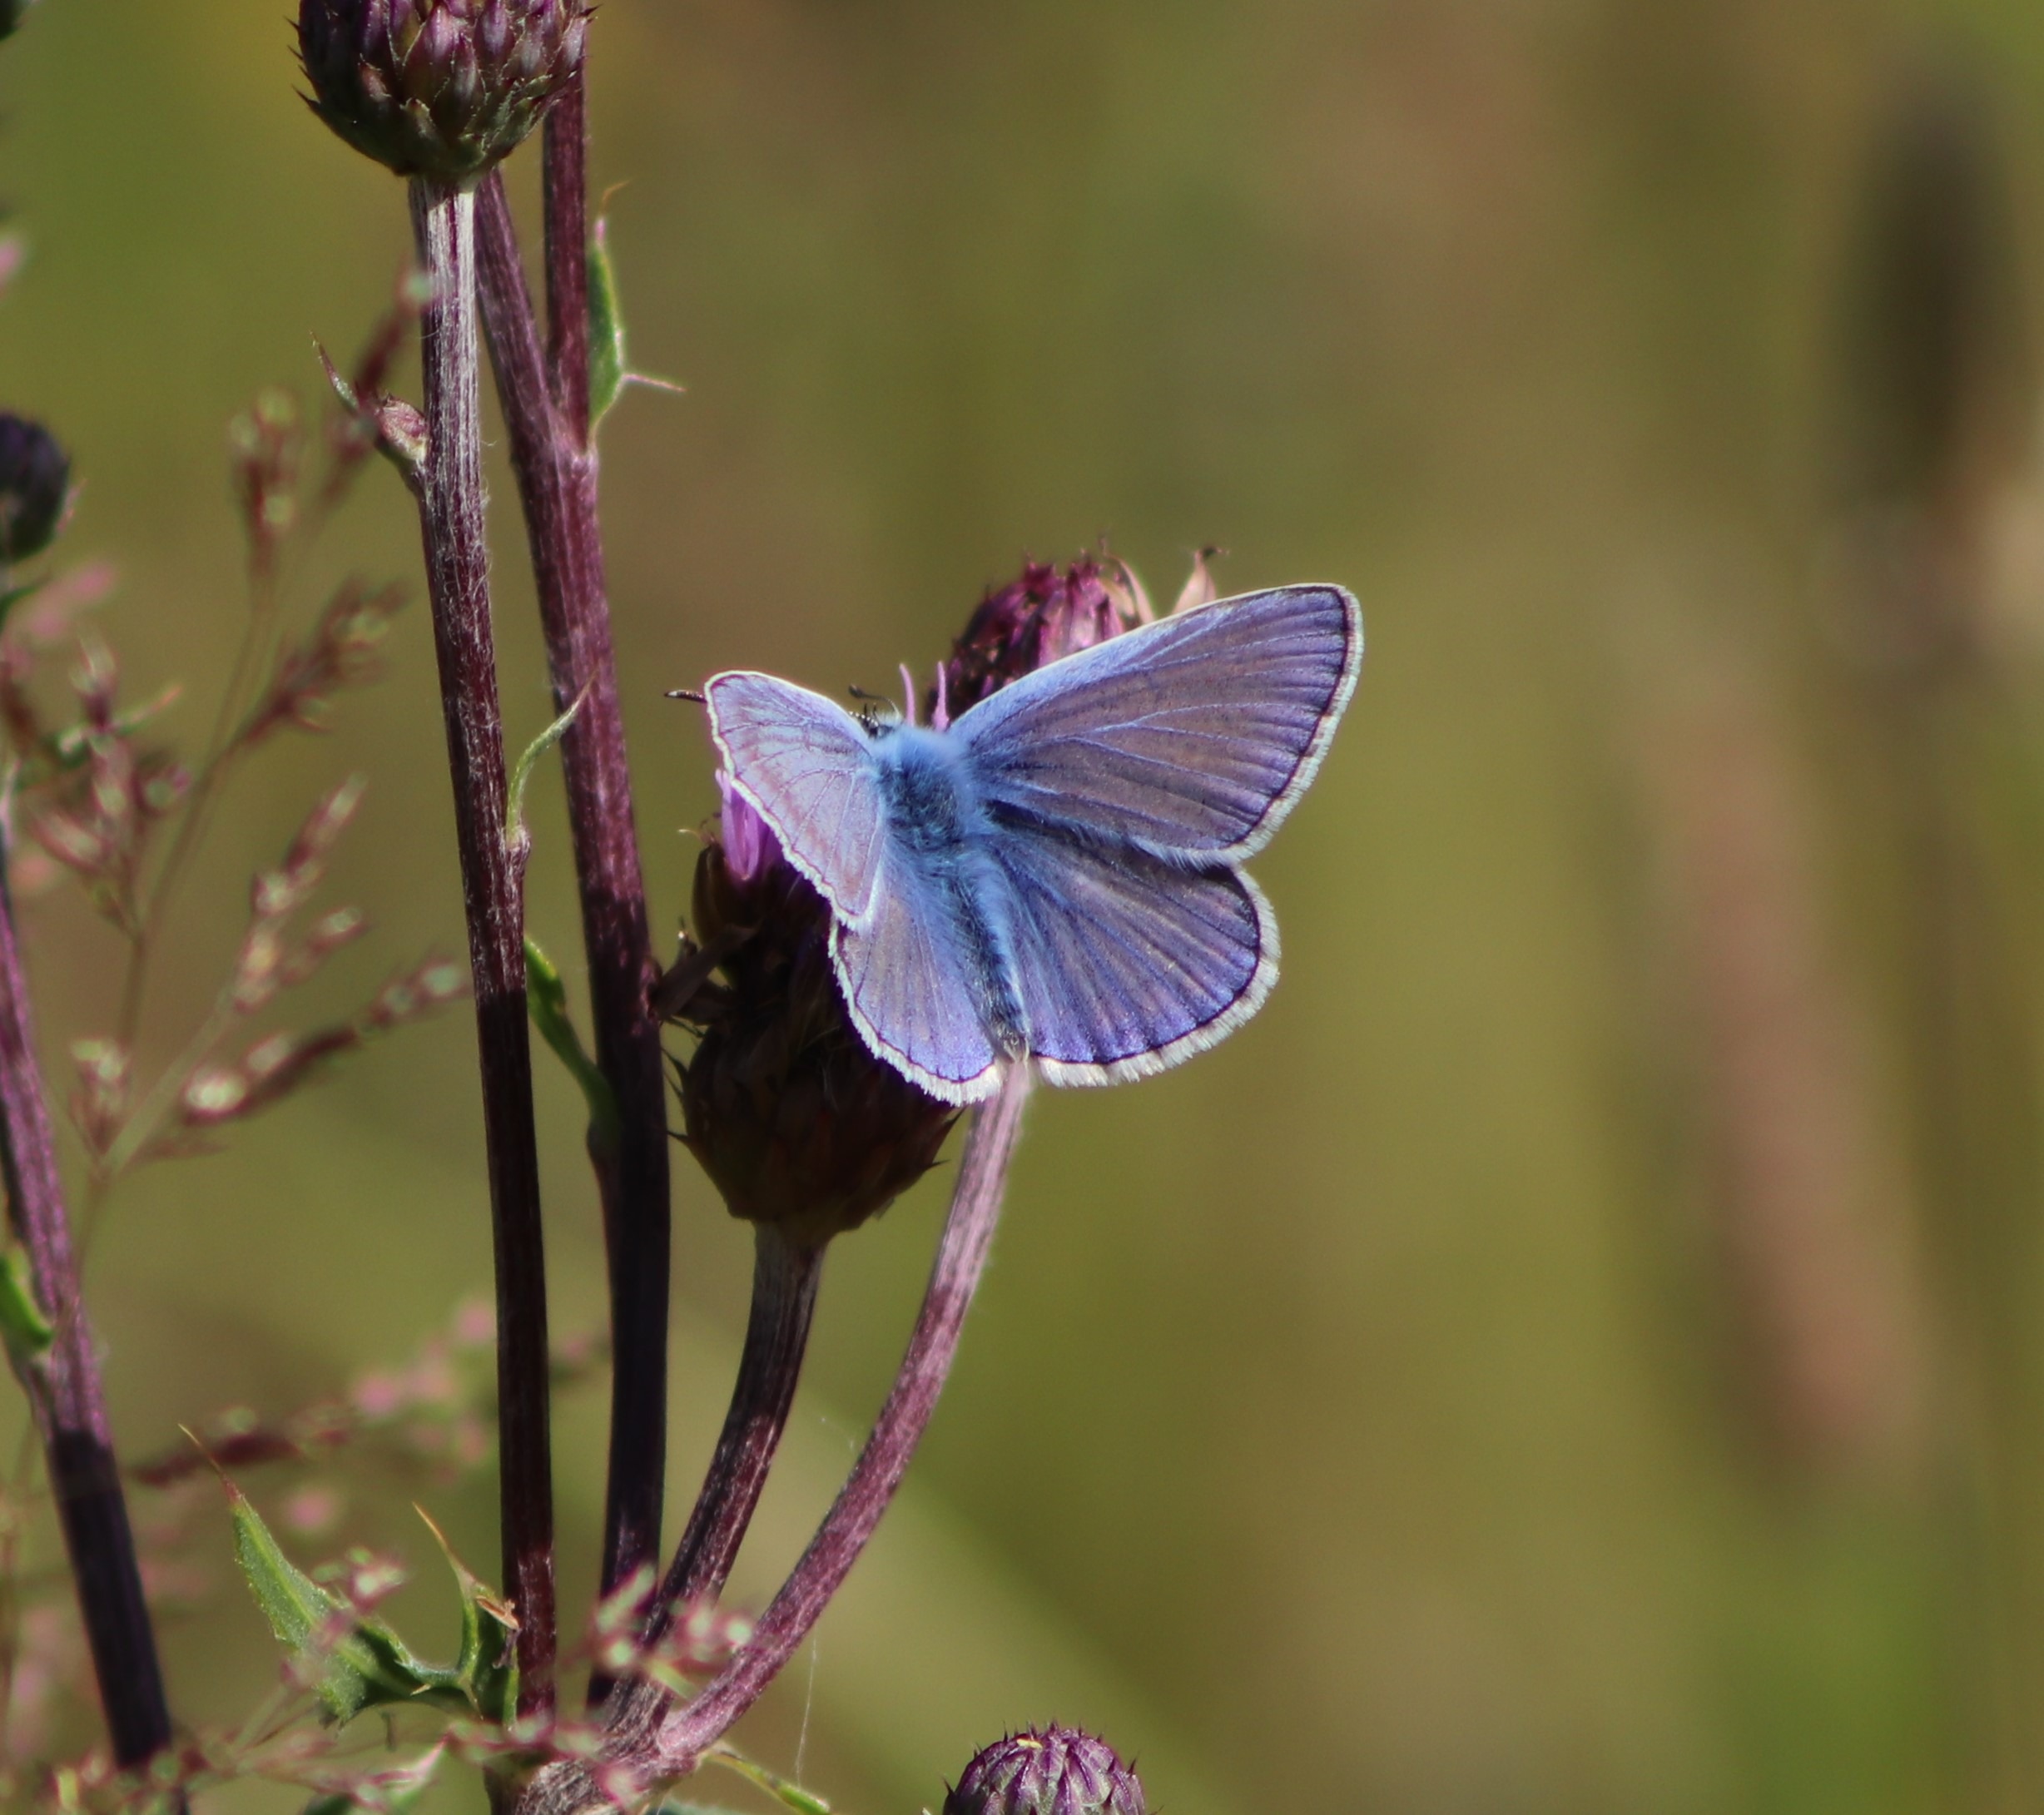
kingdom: Animalia
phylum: Arthropoda
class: Insecta
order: Lepidoptera
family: Lycaenidae
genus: Polyommatus
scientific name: Polyommatus icarus
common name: Almindelig blåfugl
